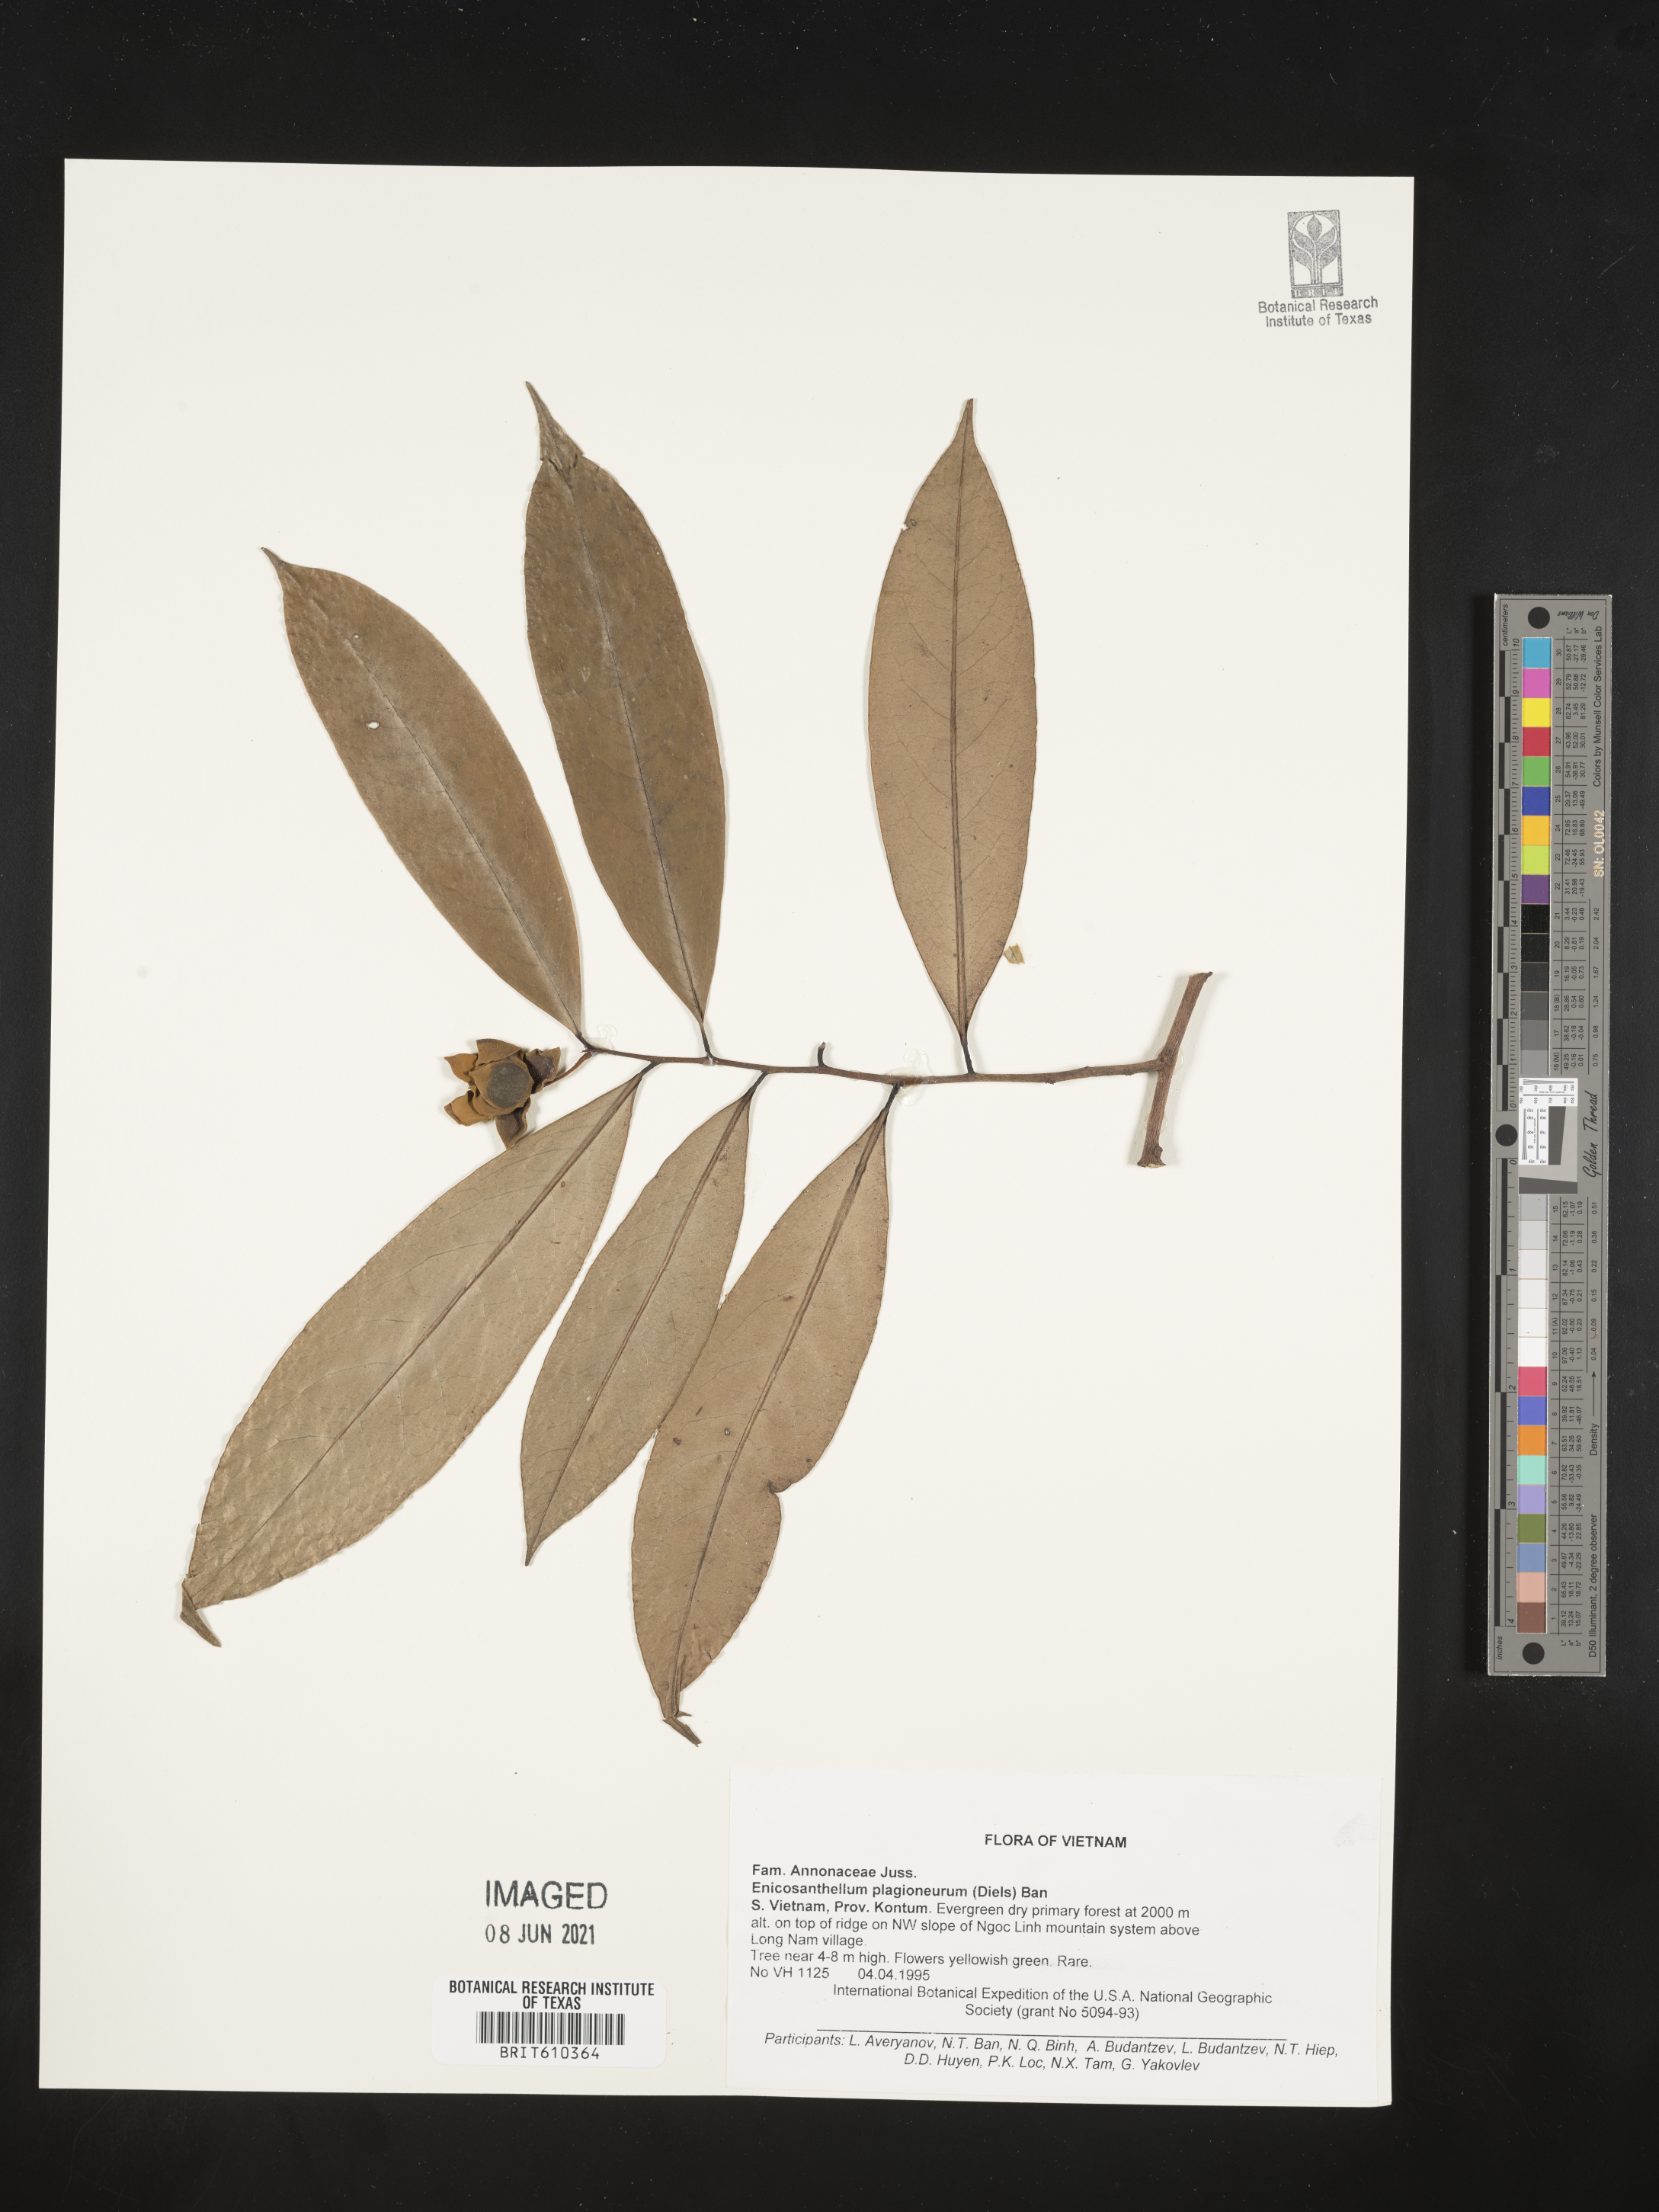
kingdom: Plantae
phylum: Tracheophyta
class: Magnoliopsida
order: Magnoliales
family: Annonaceae
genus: Disepalum
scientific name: Disepalum plagioneurum
